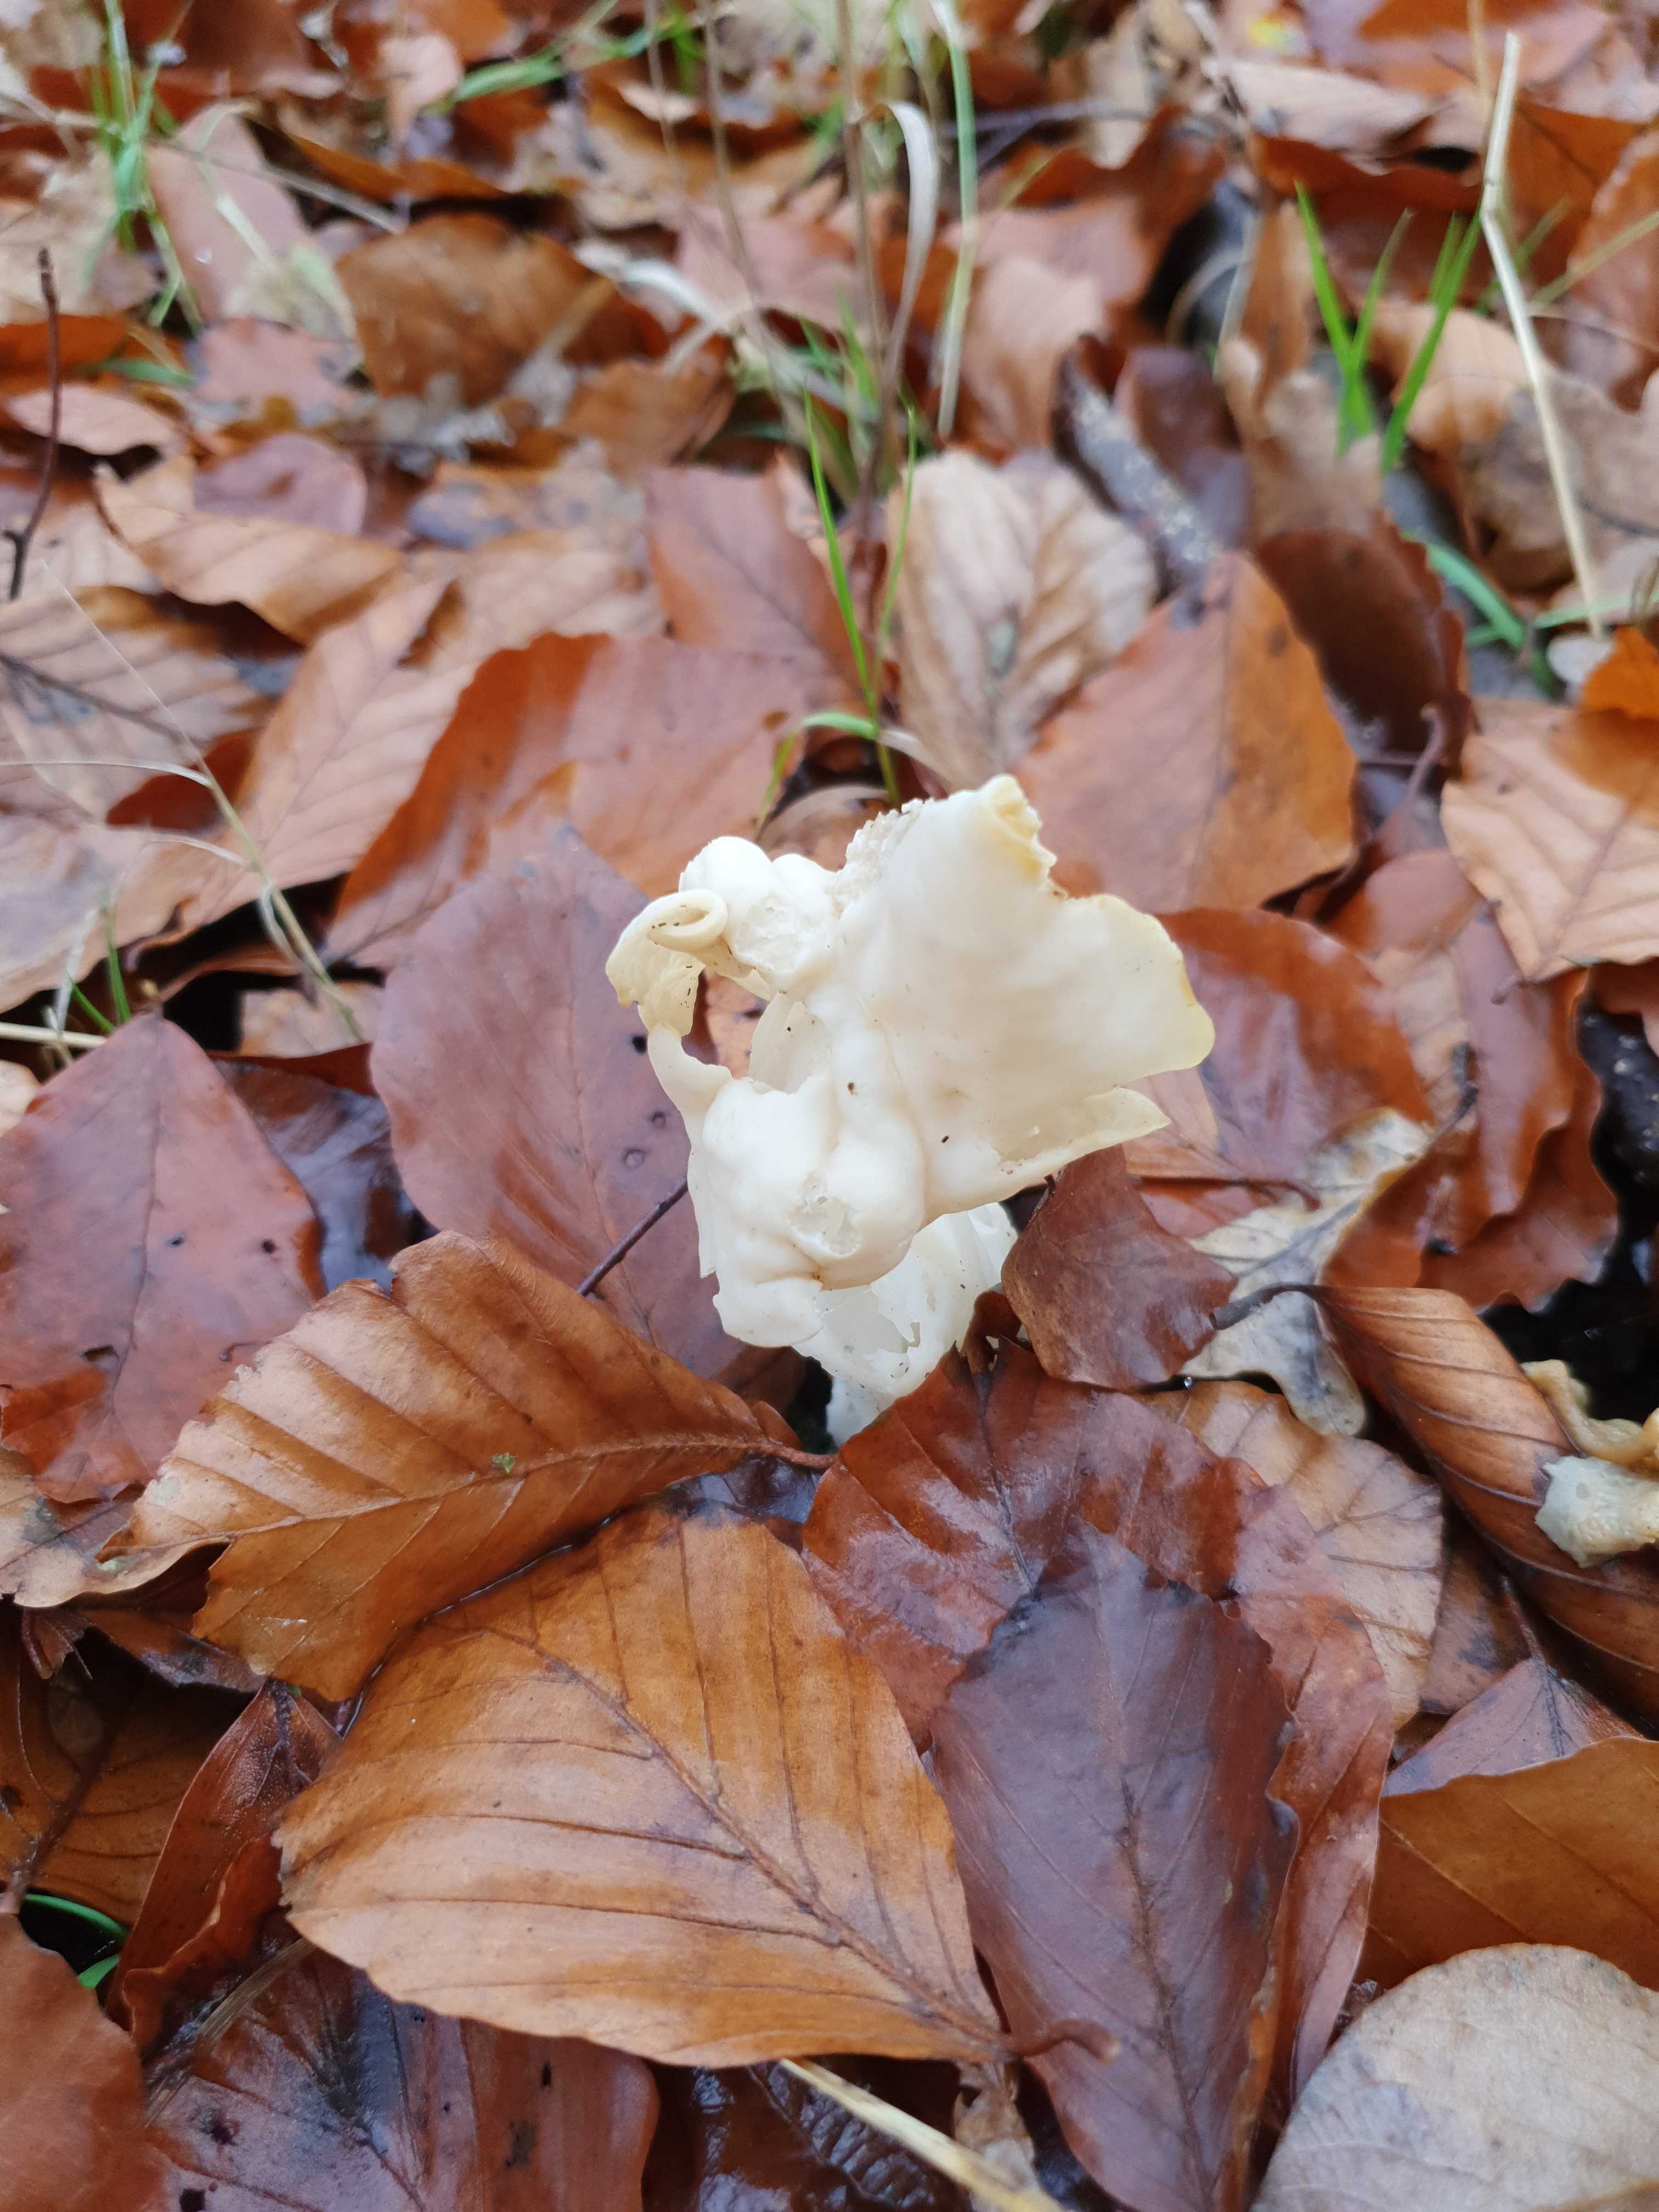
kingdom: Fungi
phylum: Ascomycota
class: Pezizomycetes
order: Pezizales
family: Helvellaceae
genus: Helvella
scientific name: Helvella crispa
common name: kruset foldhat
